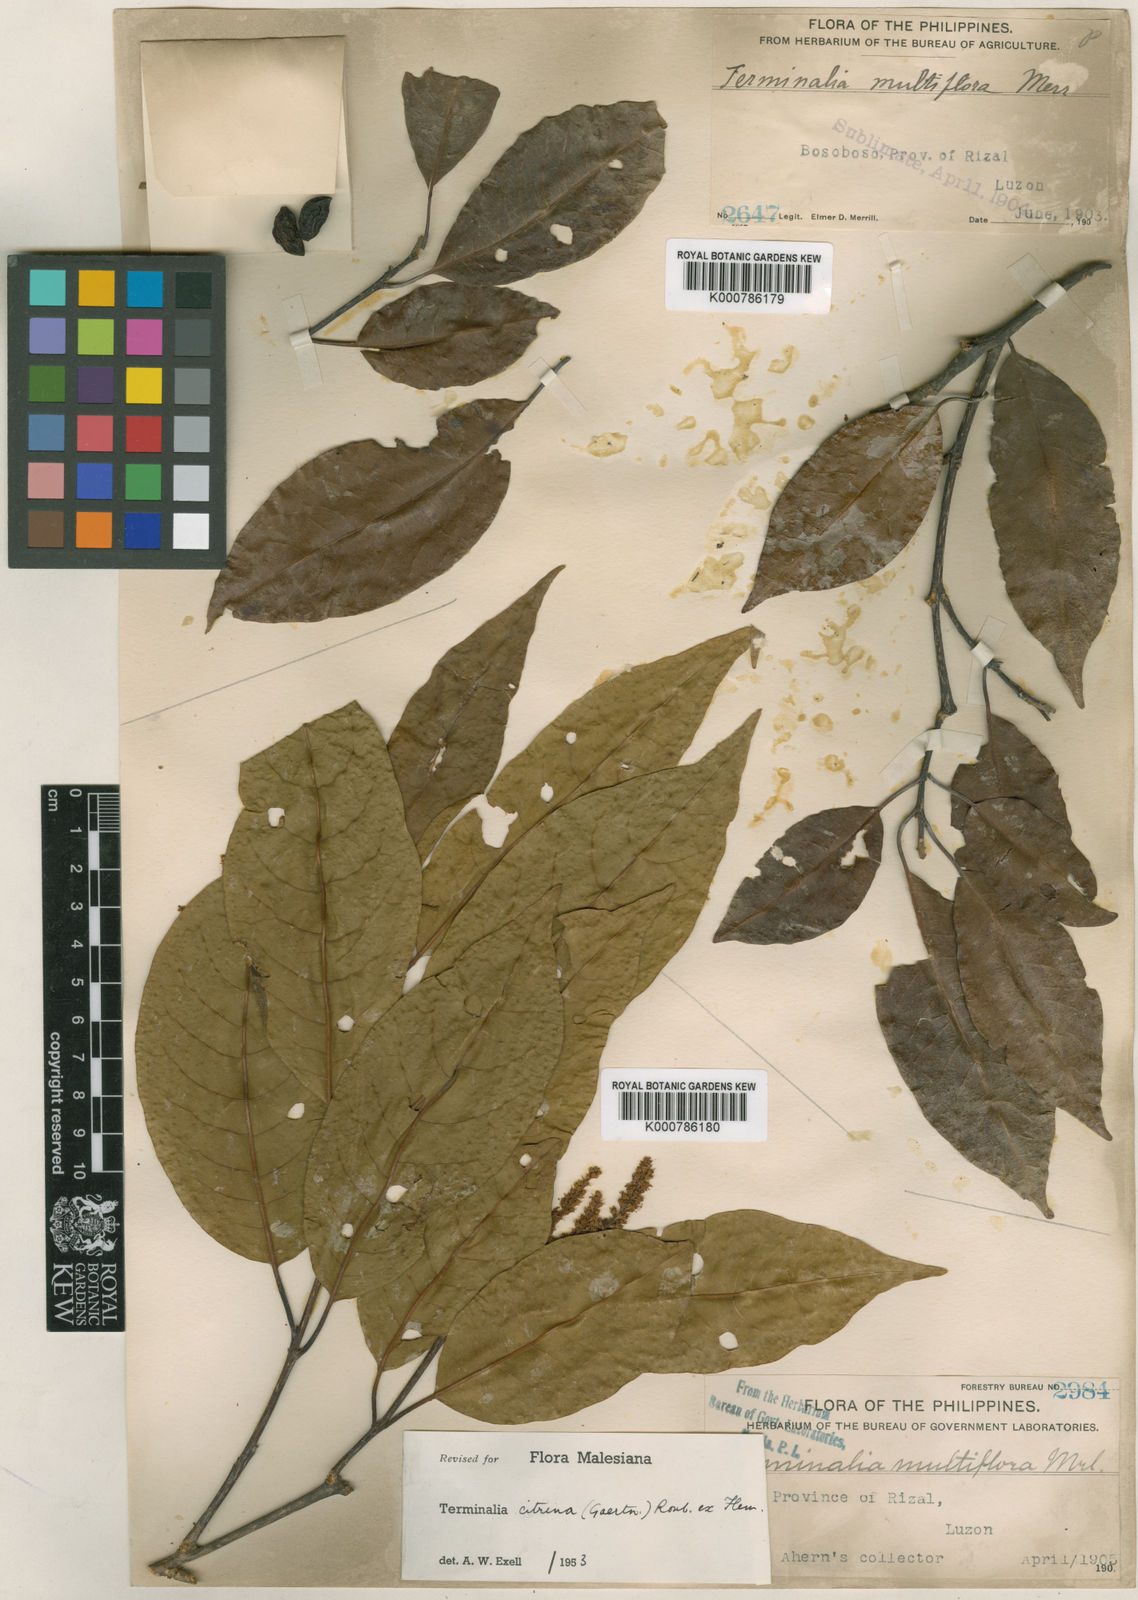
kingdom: Plantae
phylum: Tracheophyta
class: Magnoliopsida
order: Myrtales
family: Combretaceae
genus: Terminalia
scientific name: Terminalia
